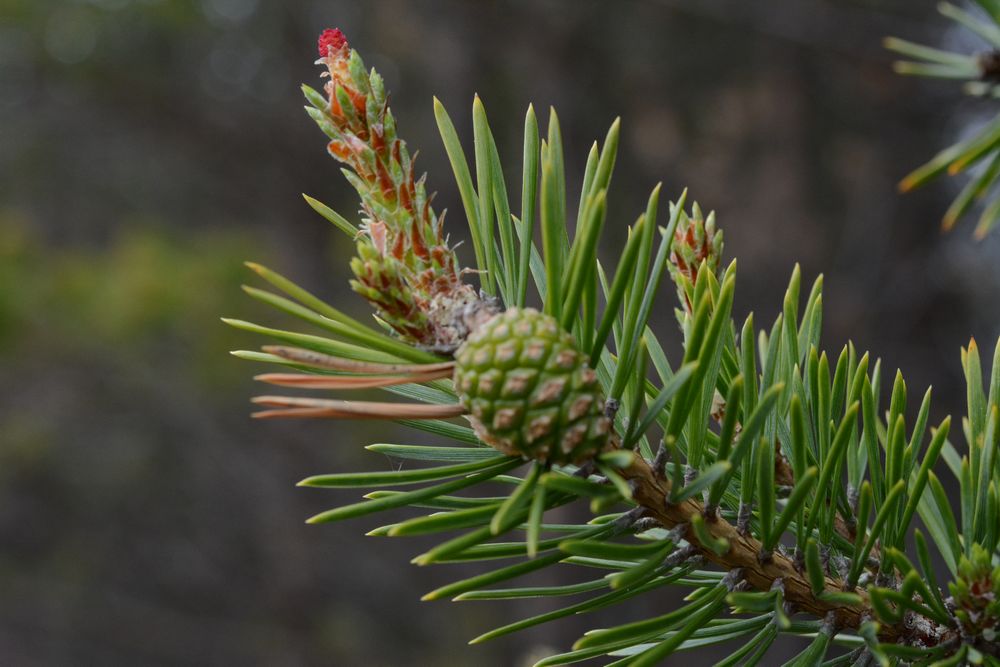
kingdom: Plantae
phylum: Tracheophyta
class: Pinopsida
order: Pinales
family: Pinaceae
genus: Pinus
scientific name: Pinus sylvestris
